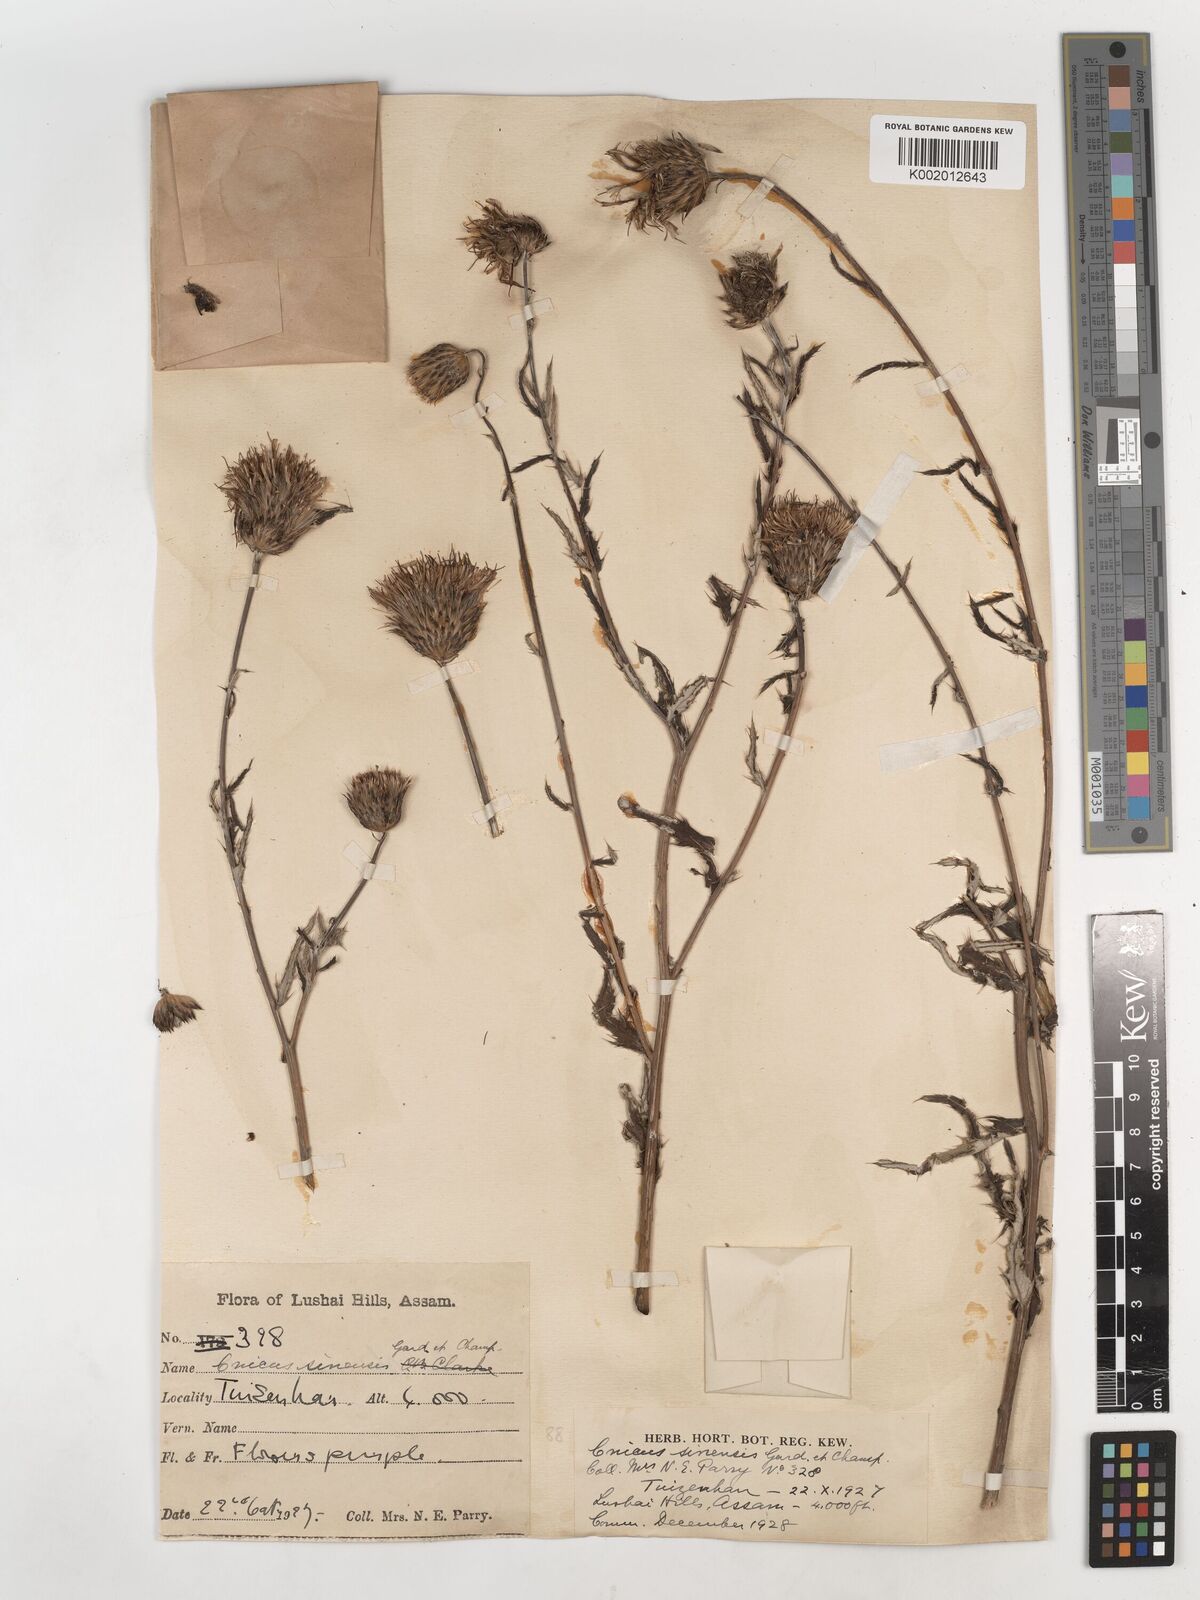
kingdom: Plantae
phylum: Tracheophyta
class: Magnoliopsida
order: Asterales
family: Asteraceae
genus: Cirsium
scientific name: Cirsium lineare
